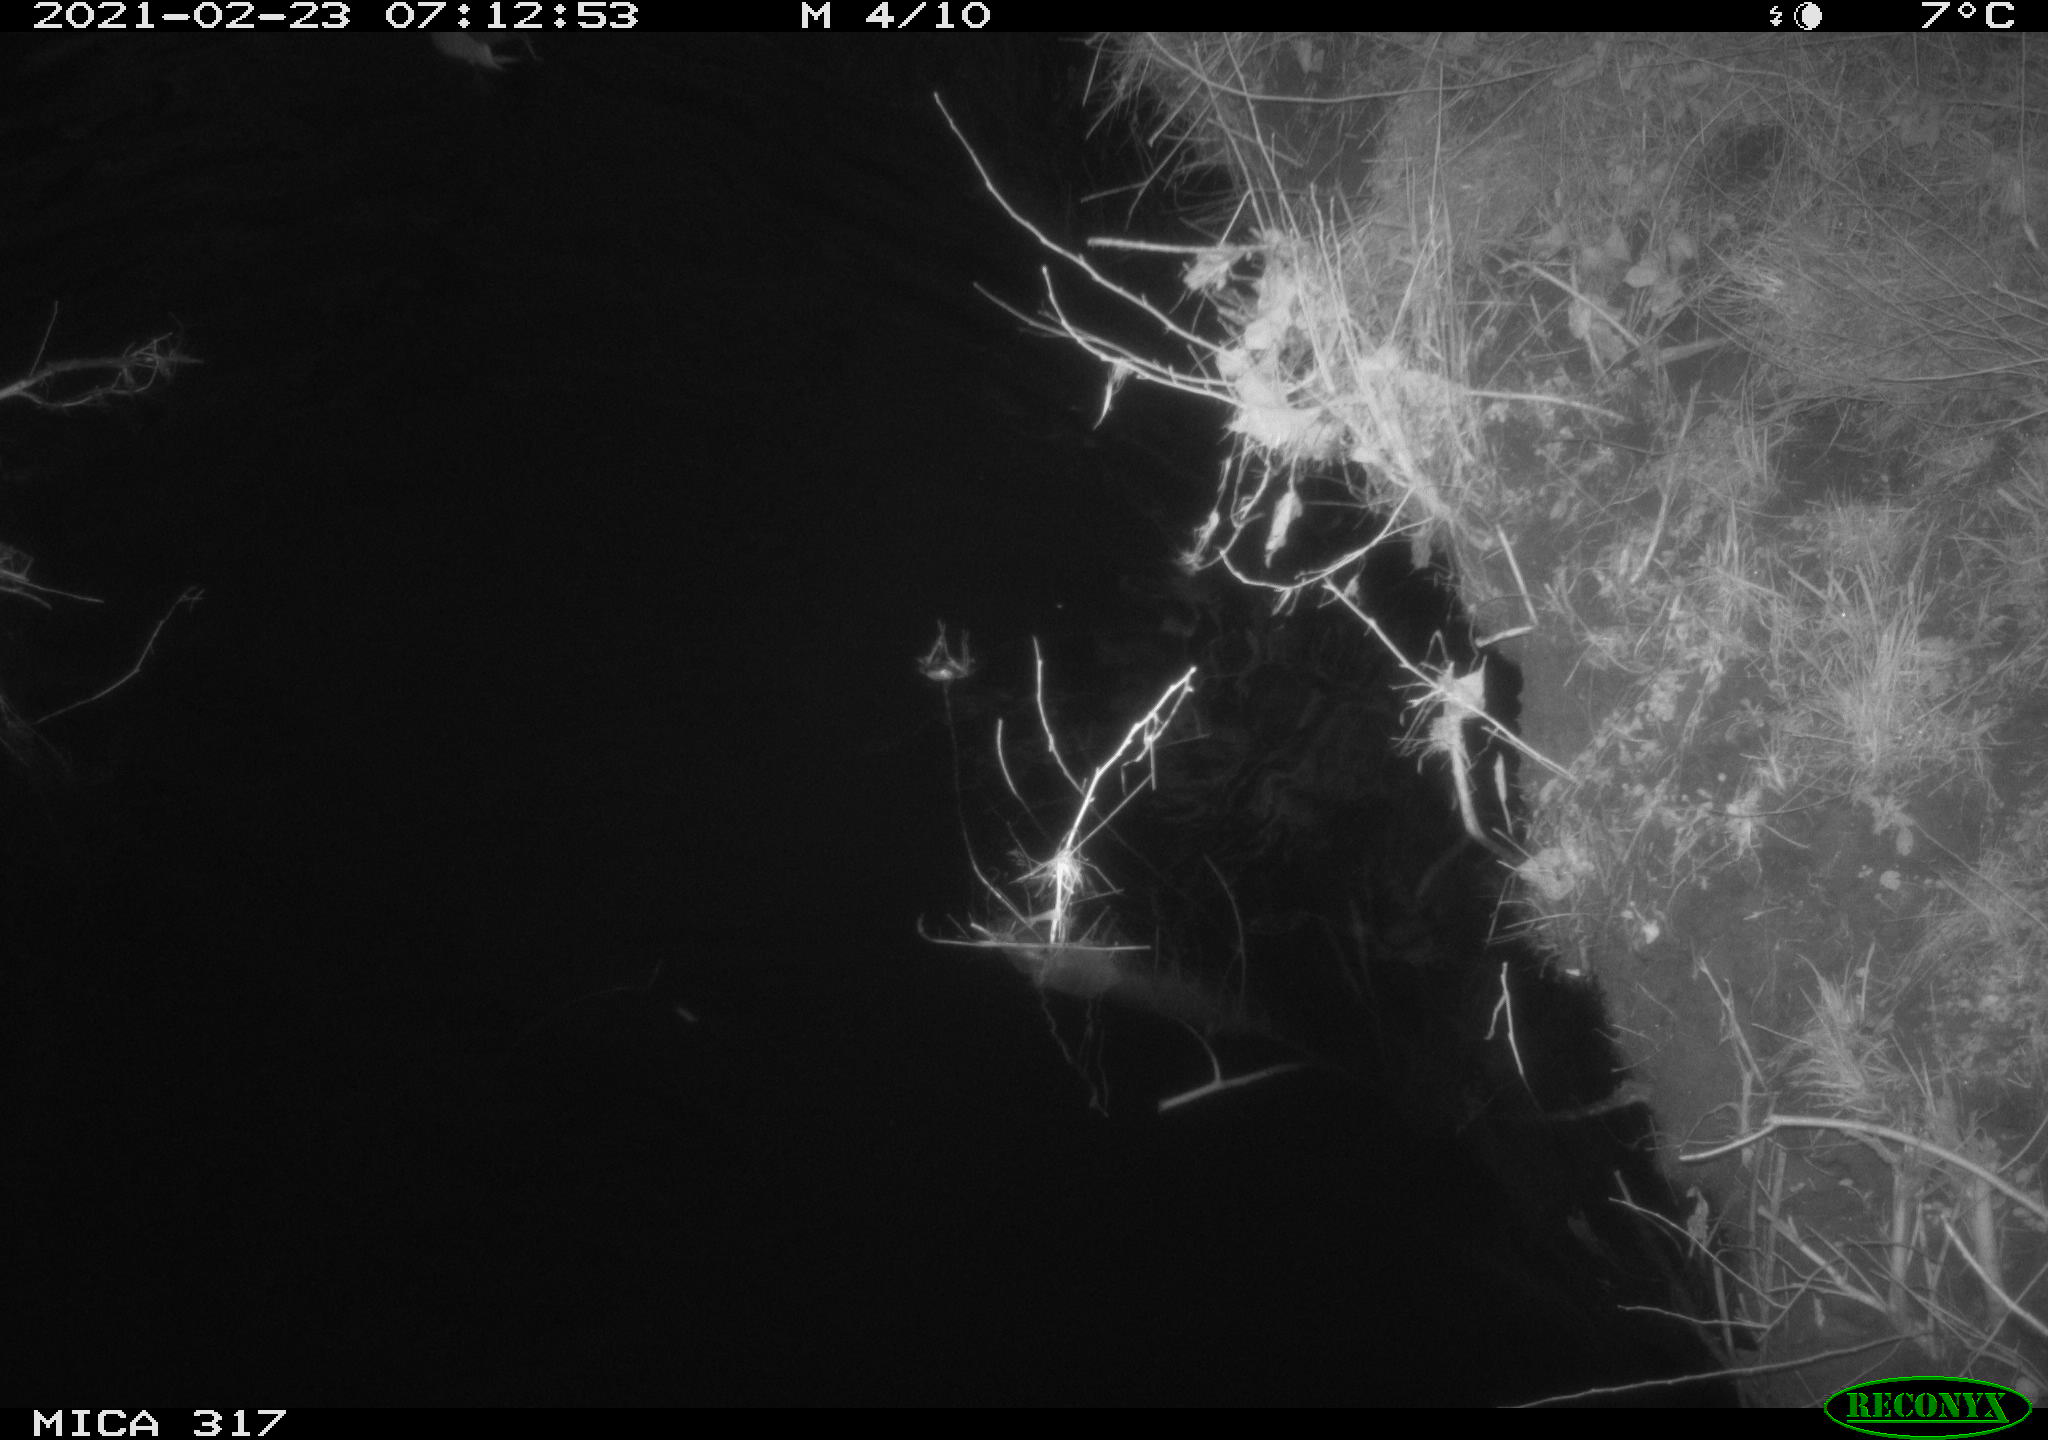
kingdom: Animalia
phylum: Chordata
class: Aves
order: Anseriformes
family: Anatidae
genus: Anas
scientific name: Anas platyrhynchos
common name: Mallard
